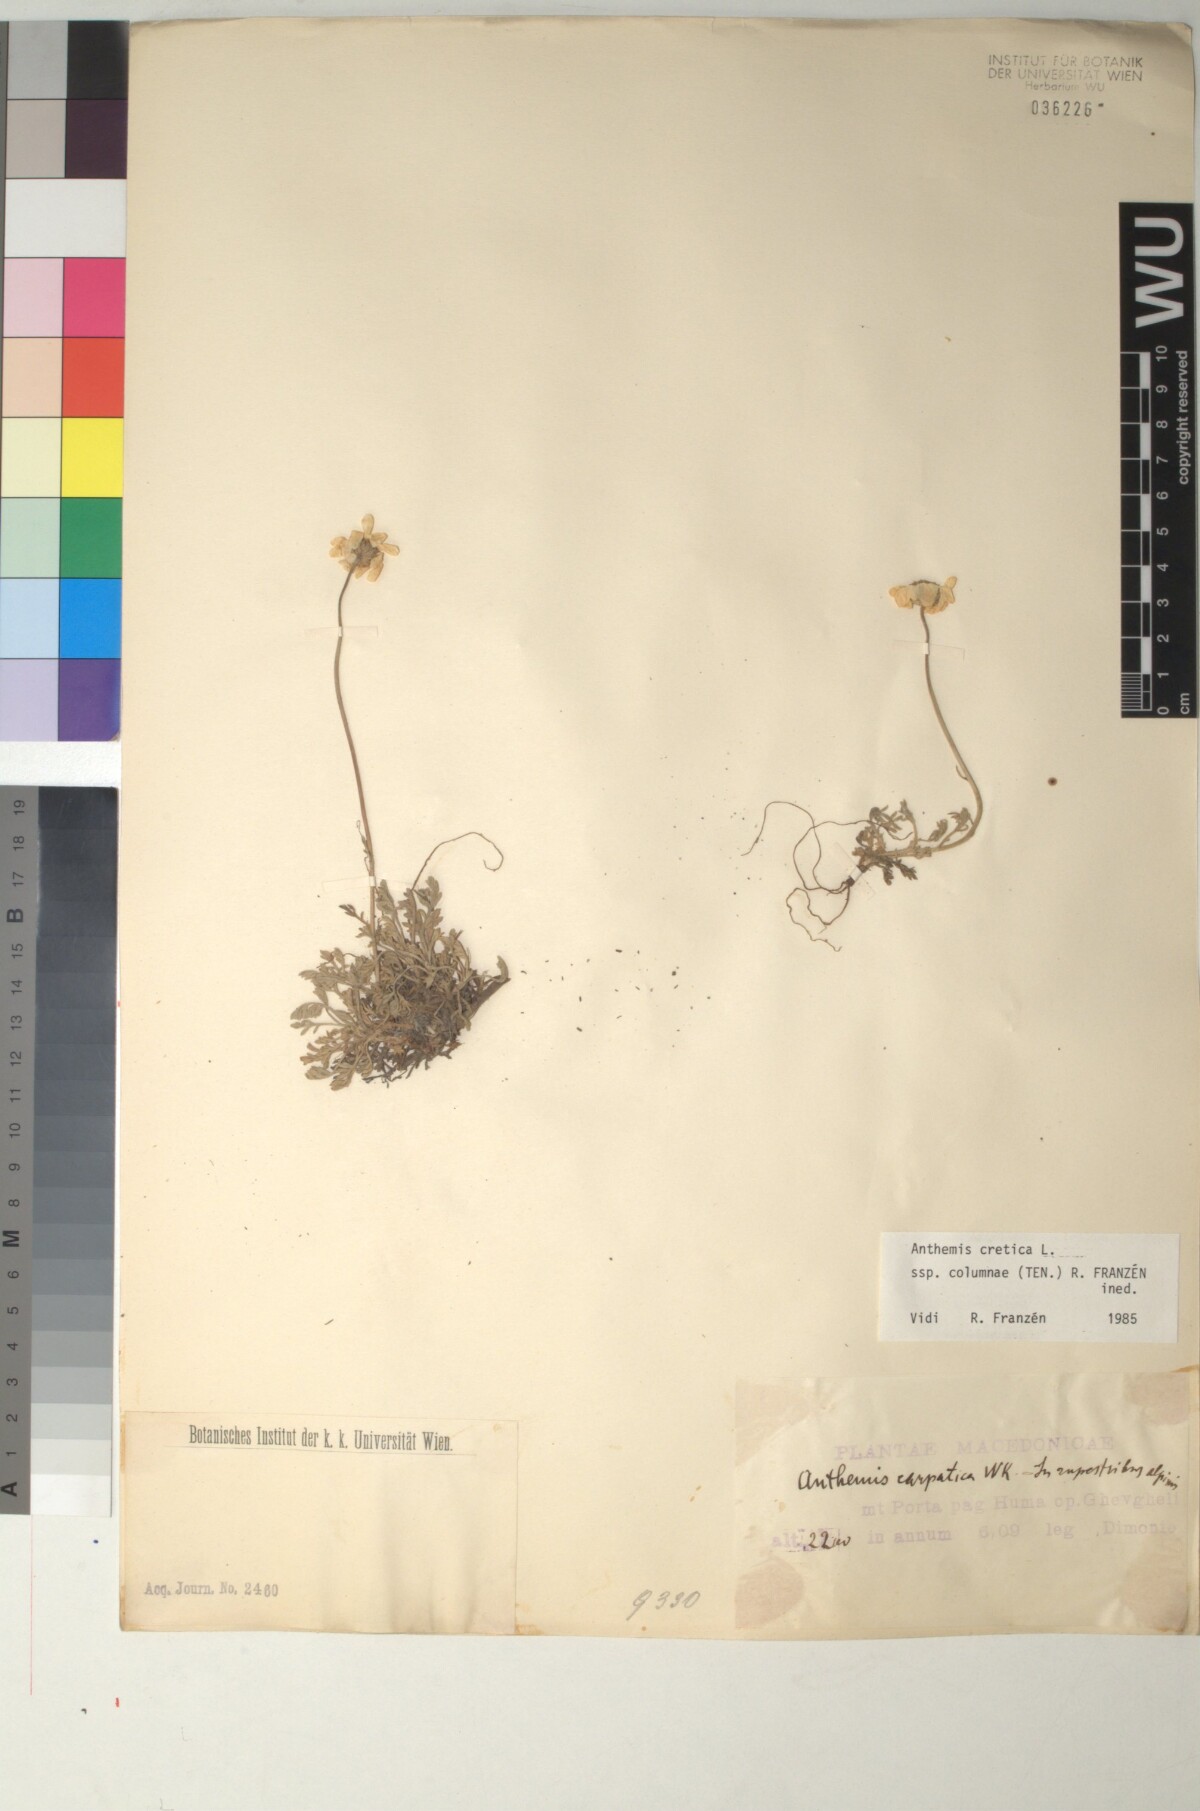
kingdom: Plantae
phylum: Tracheophyta
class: Magnoliopsida
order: Asterales
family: Asteraceae
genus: Anthemis
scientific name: Anthemis cretica
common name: Mountain dog-daisy
